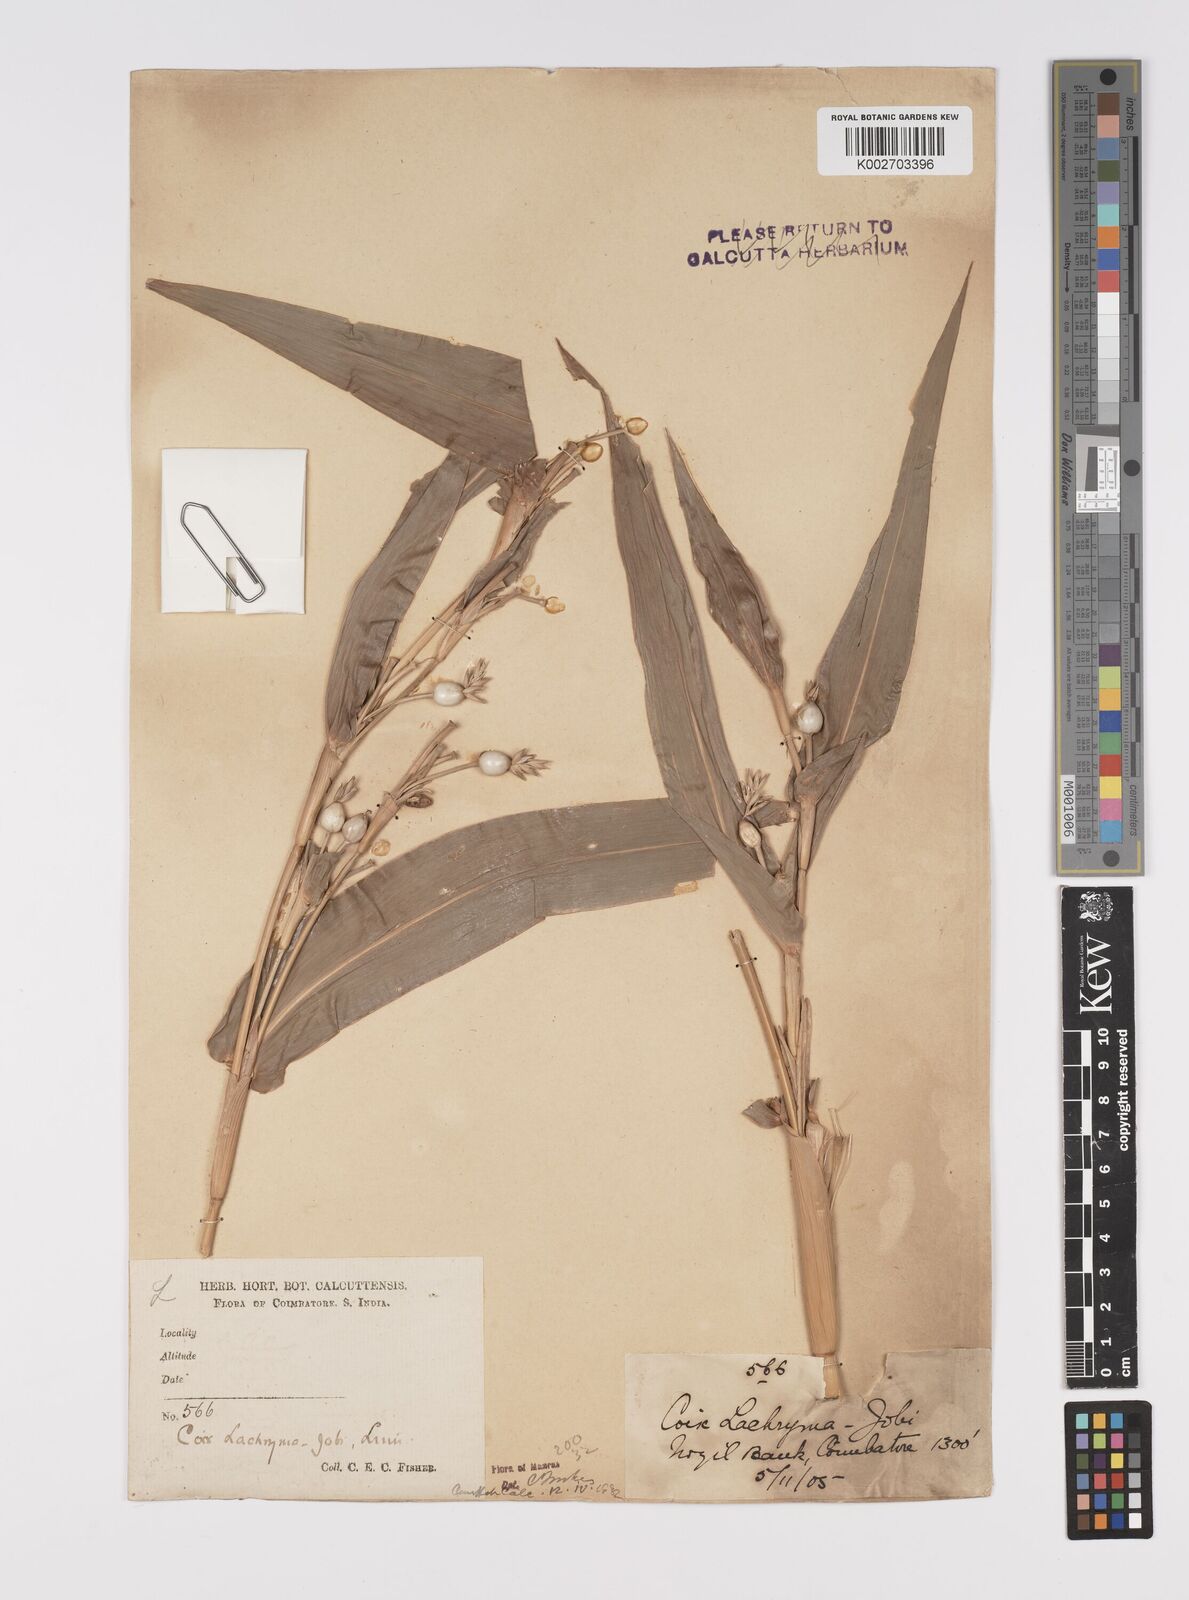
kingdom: Plantae
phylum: Tracheophyta
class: Liliopsida
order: Poales
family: Poaceae
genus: Coix
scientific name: Coix lacryma-jobi
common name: Job's tears
